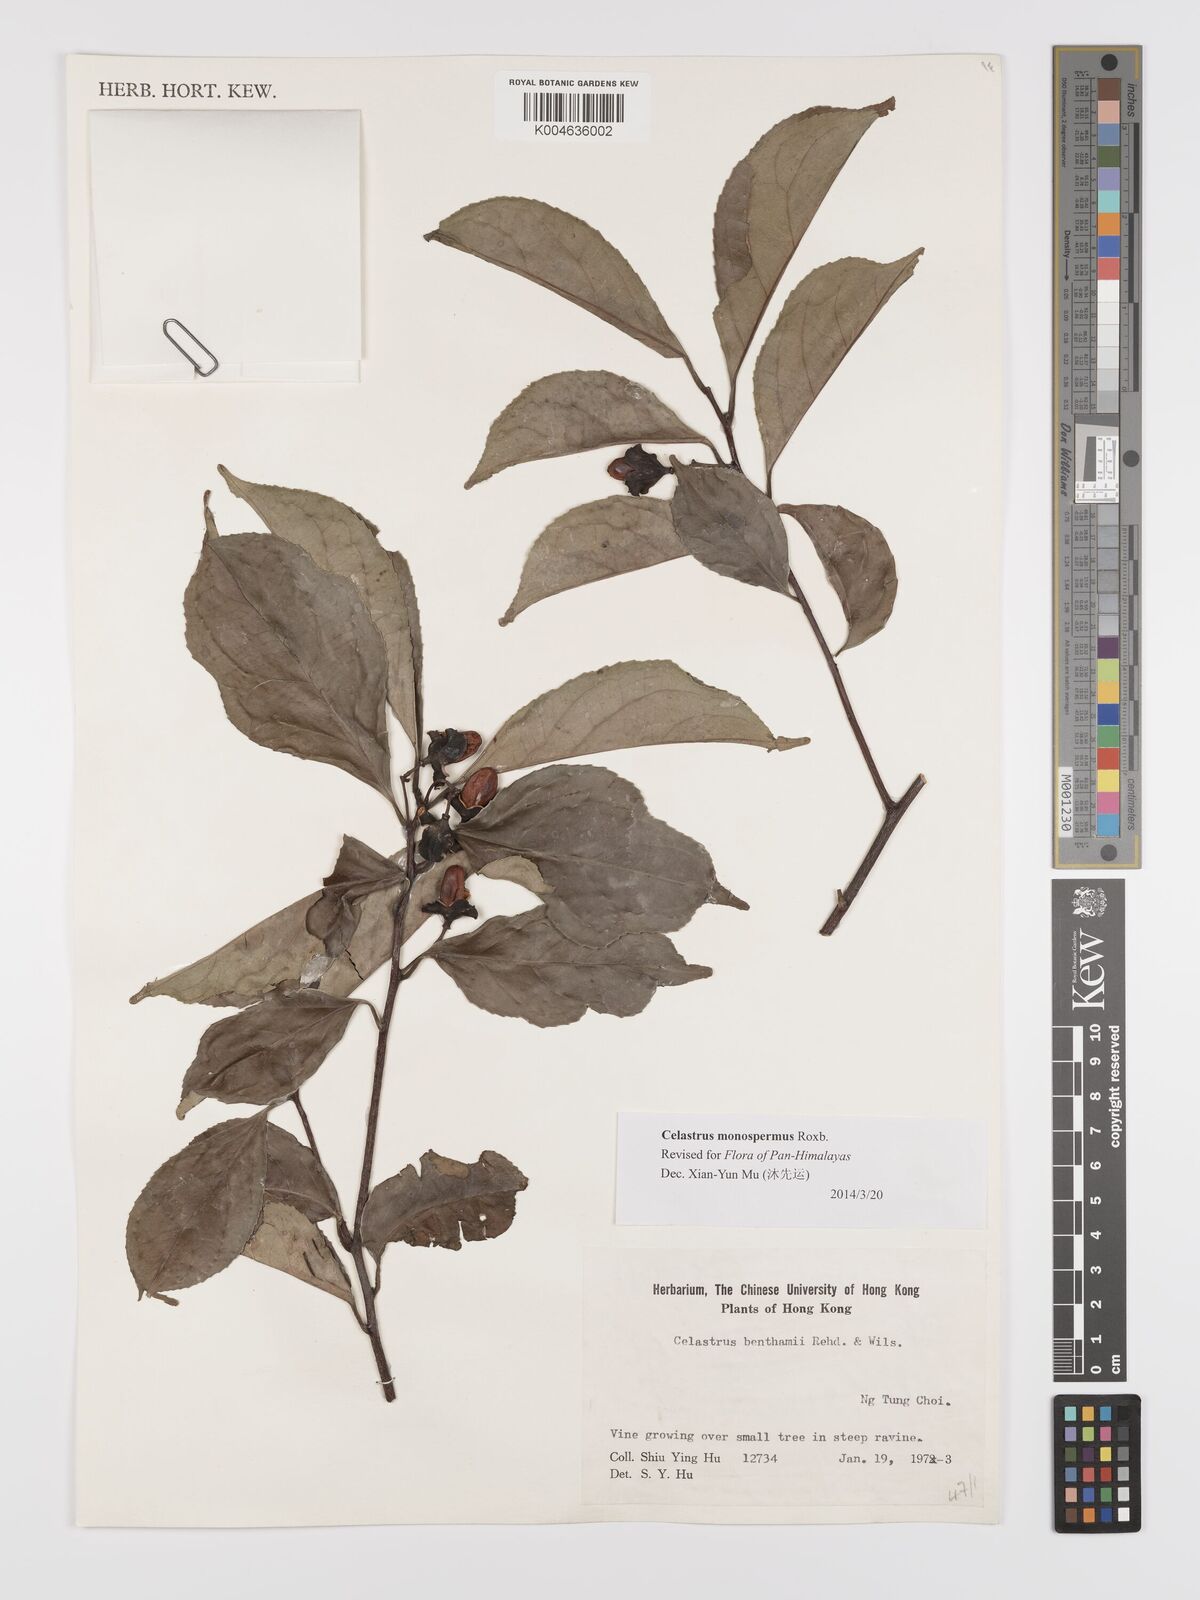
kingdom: Plantae
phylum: Tracheophyta
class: Magnoliopsida
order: Celastrales
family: Celastraceae
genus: Celastrus
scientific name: Celastrus monospermus
